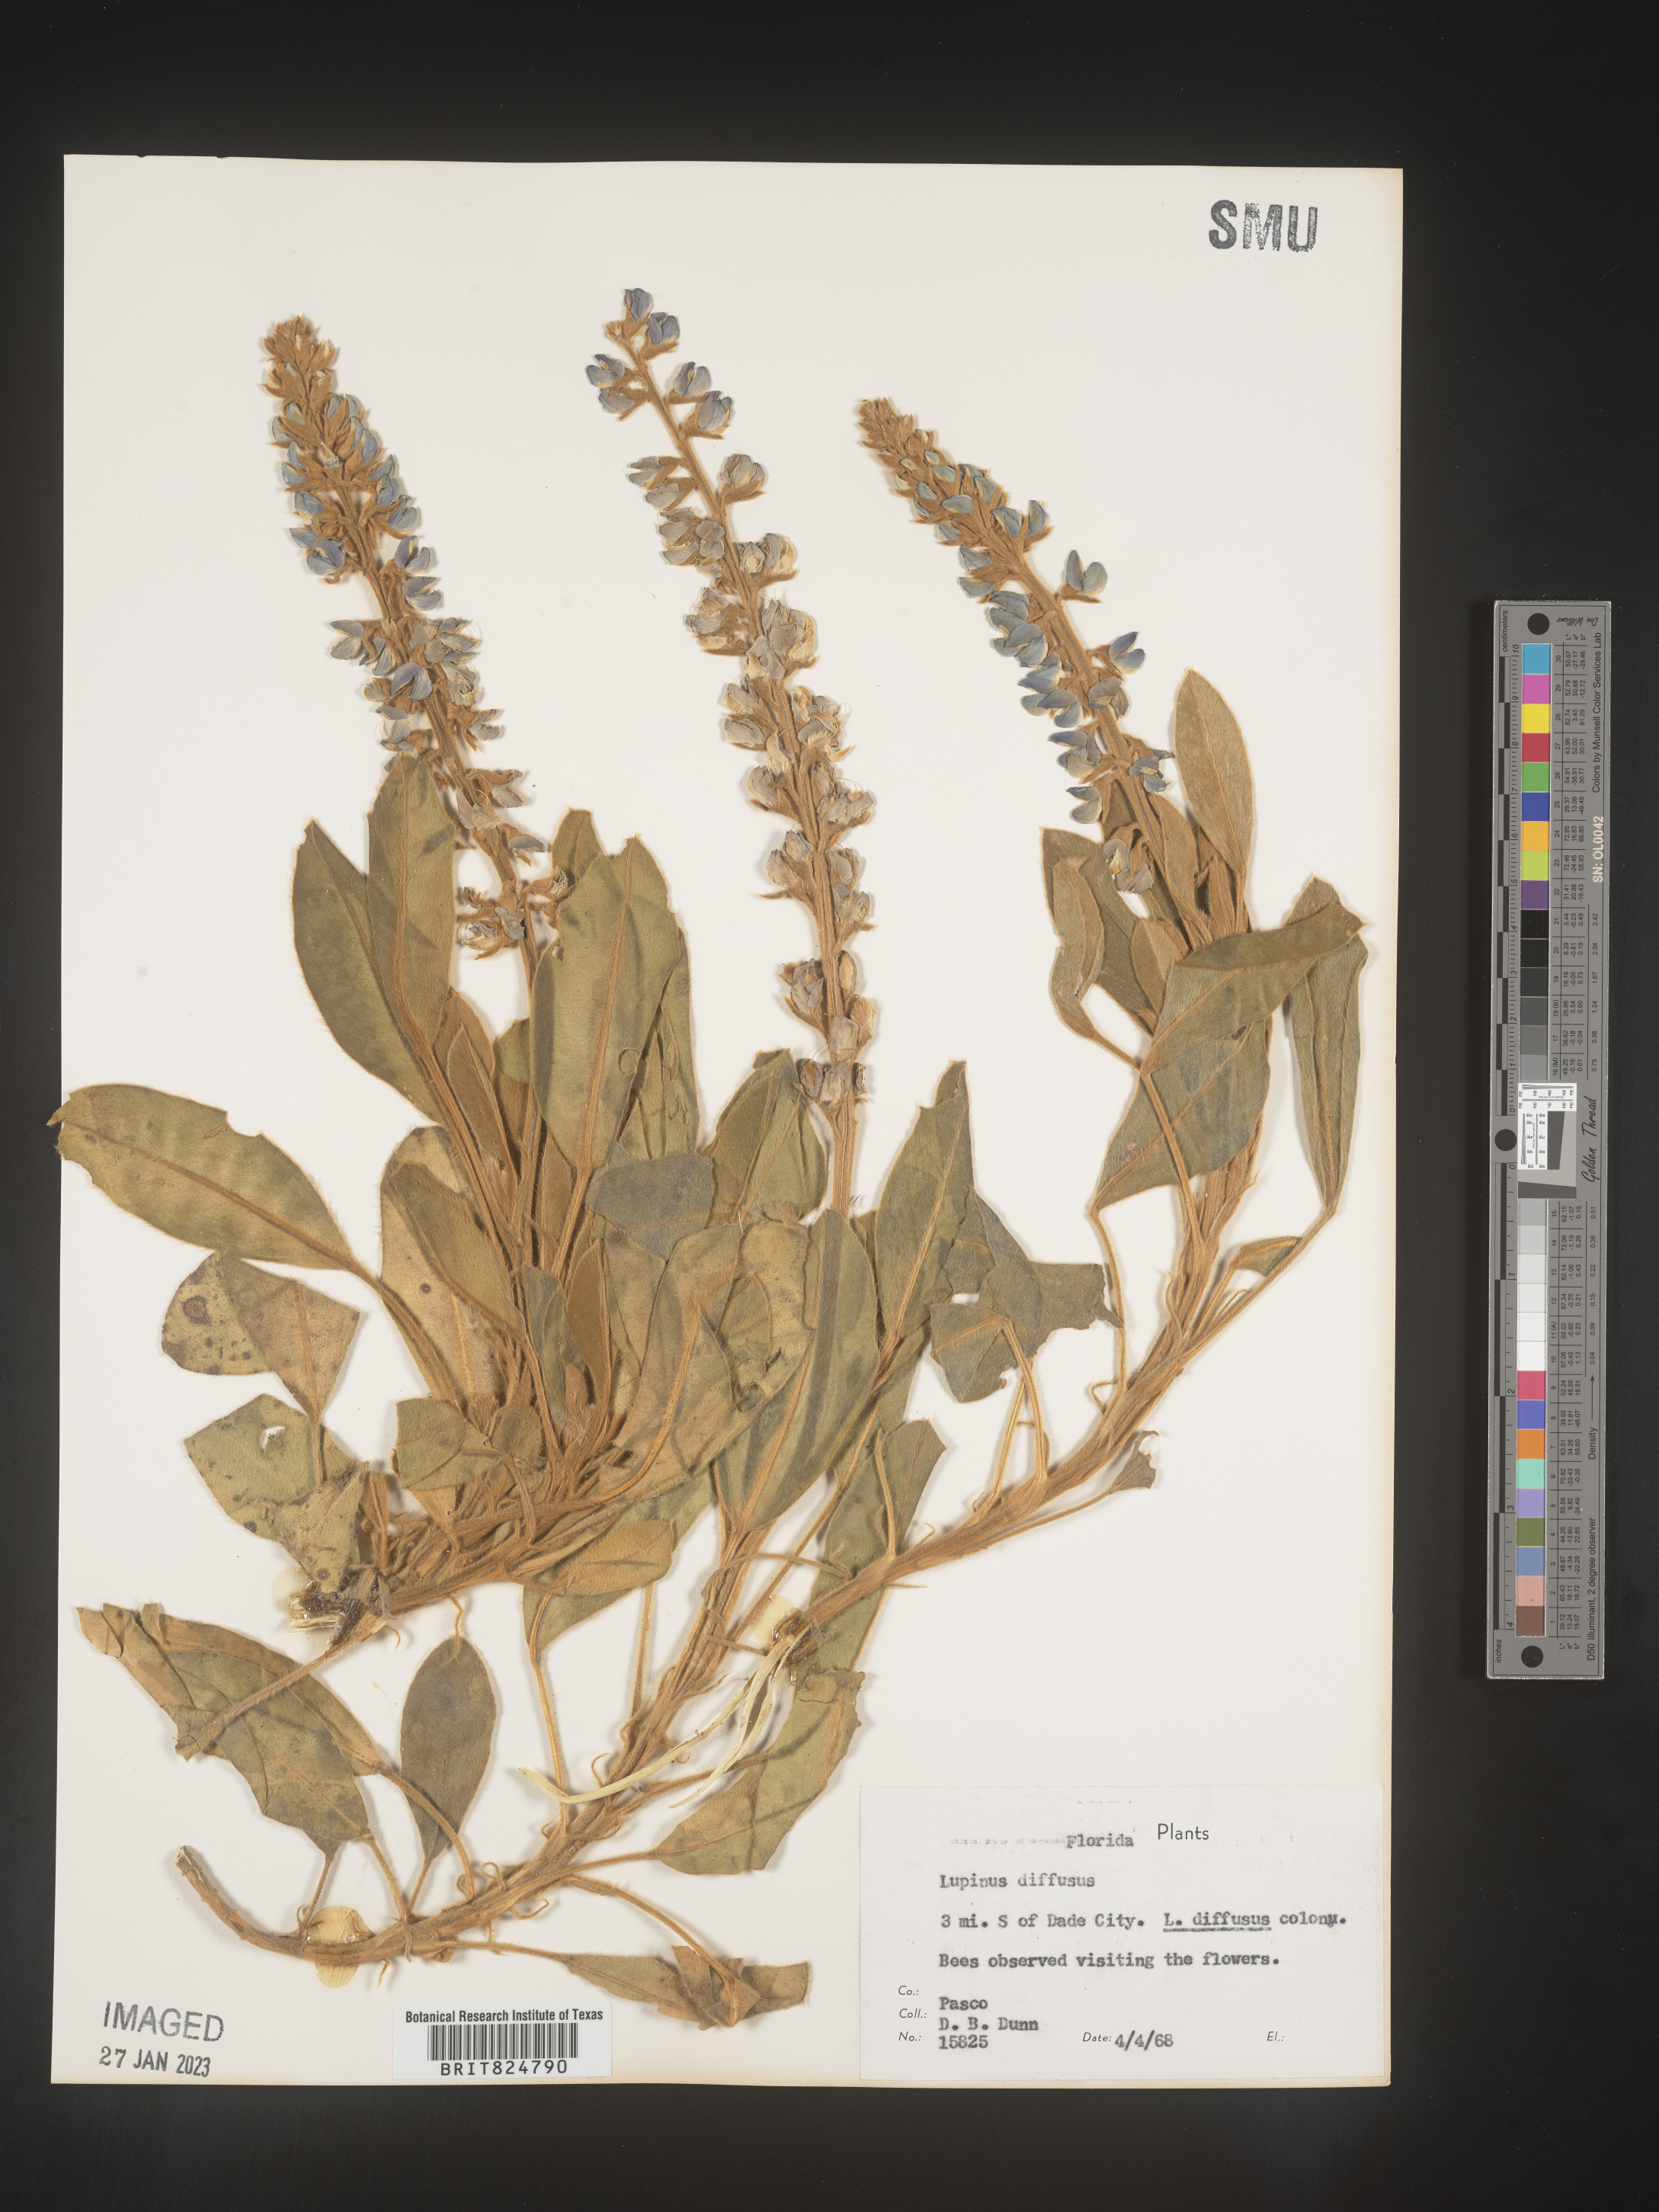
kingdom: Plantae
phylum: Tracheophyta
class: Magnoliopsida
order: Fabales
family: Fabaceae
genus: Lupinus
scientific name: Lupinus diffusus
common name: Oak ridge lupine
